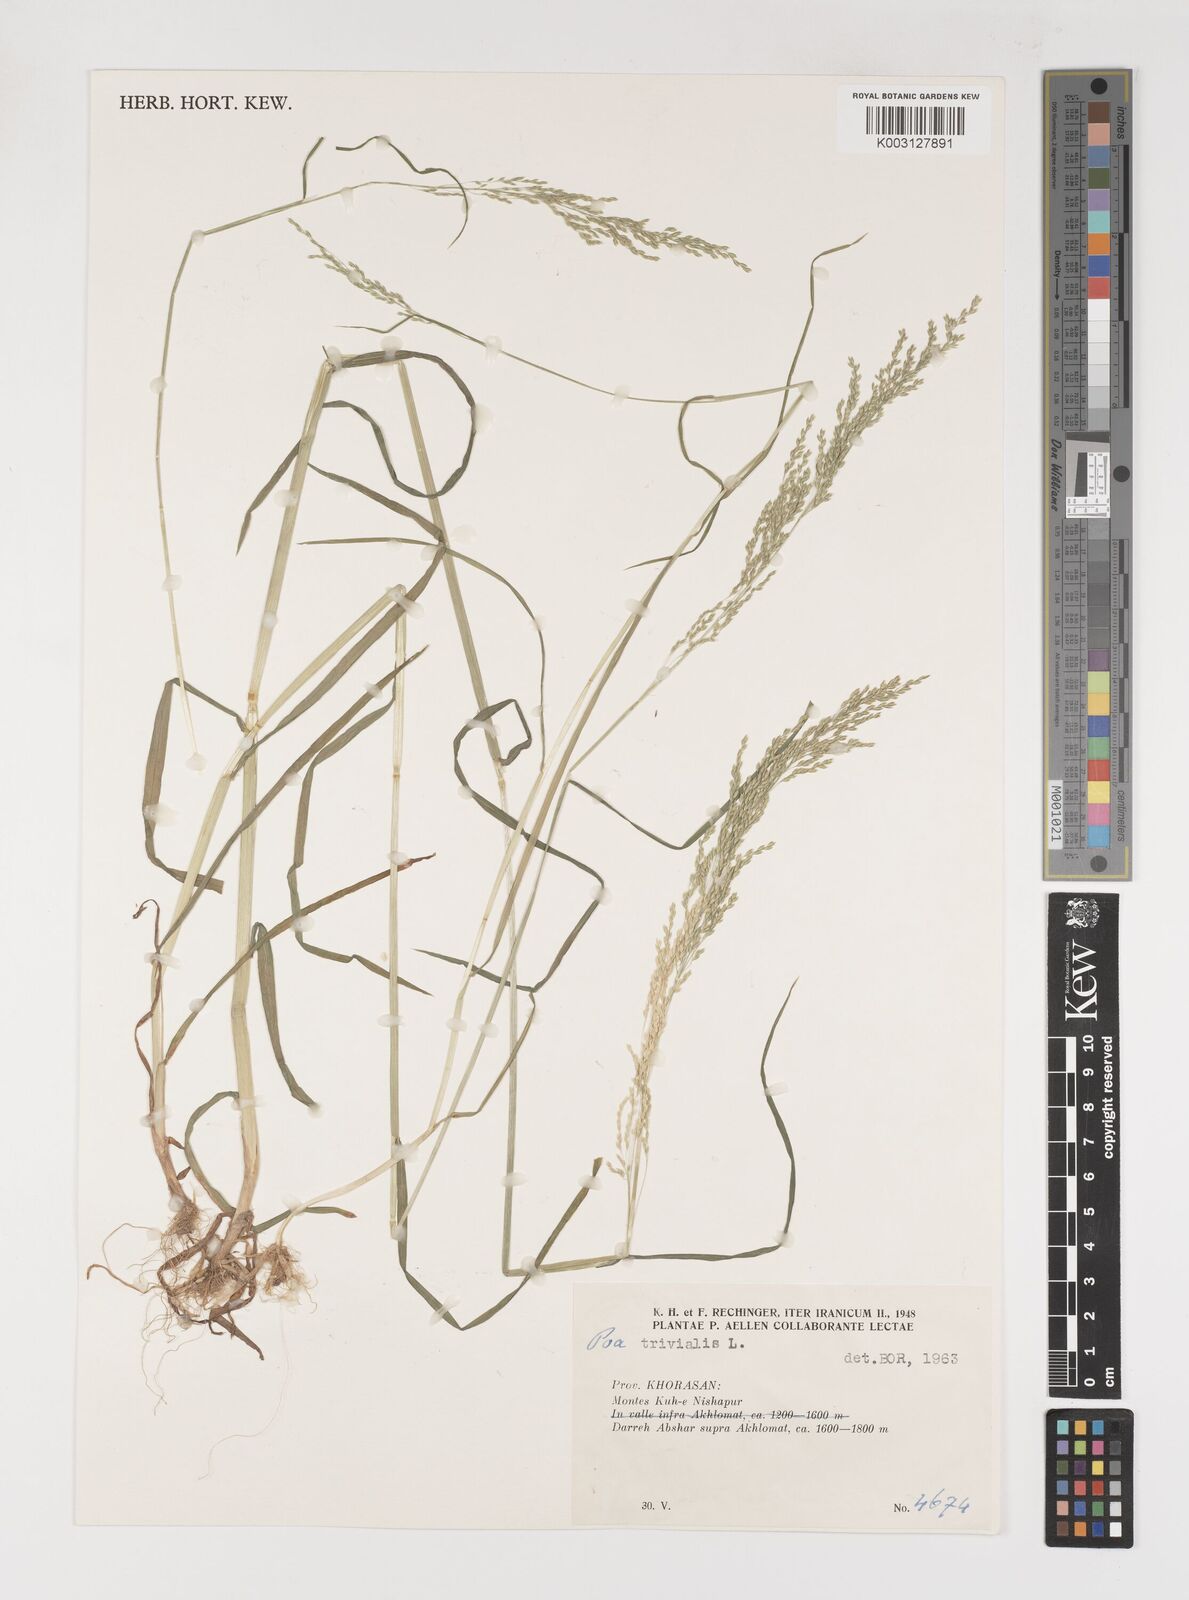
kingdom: Plantae
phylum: Tracheophyta
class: Liliopsida
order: Poales
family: Poaceae
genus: Poa
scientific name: Poa trivialis
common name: Rough bluegrass
